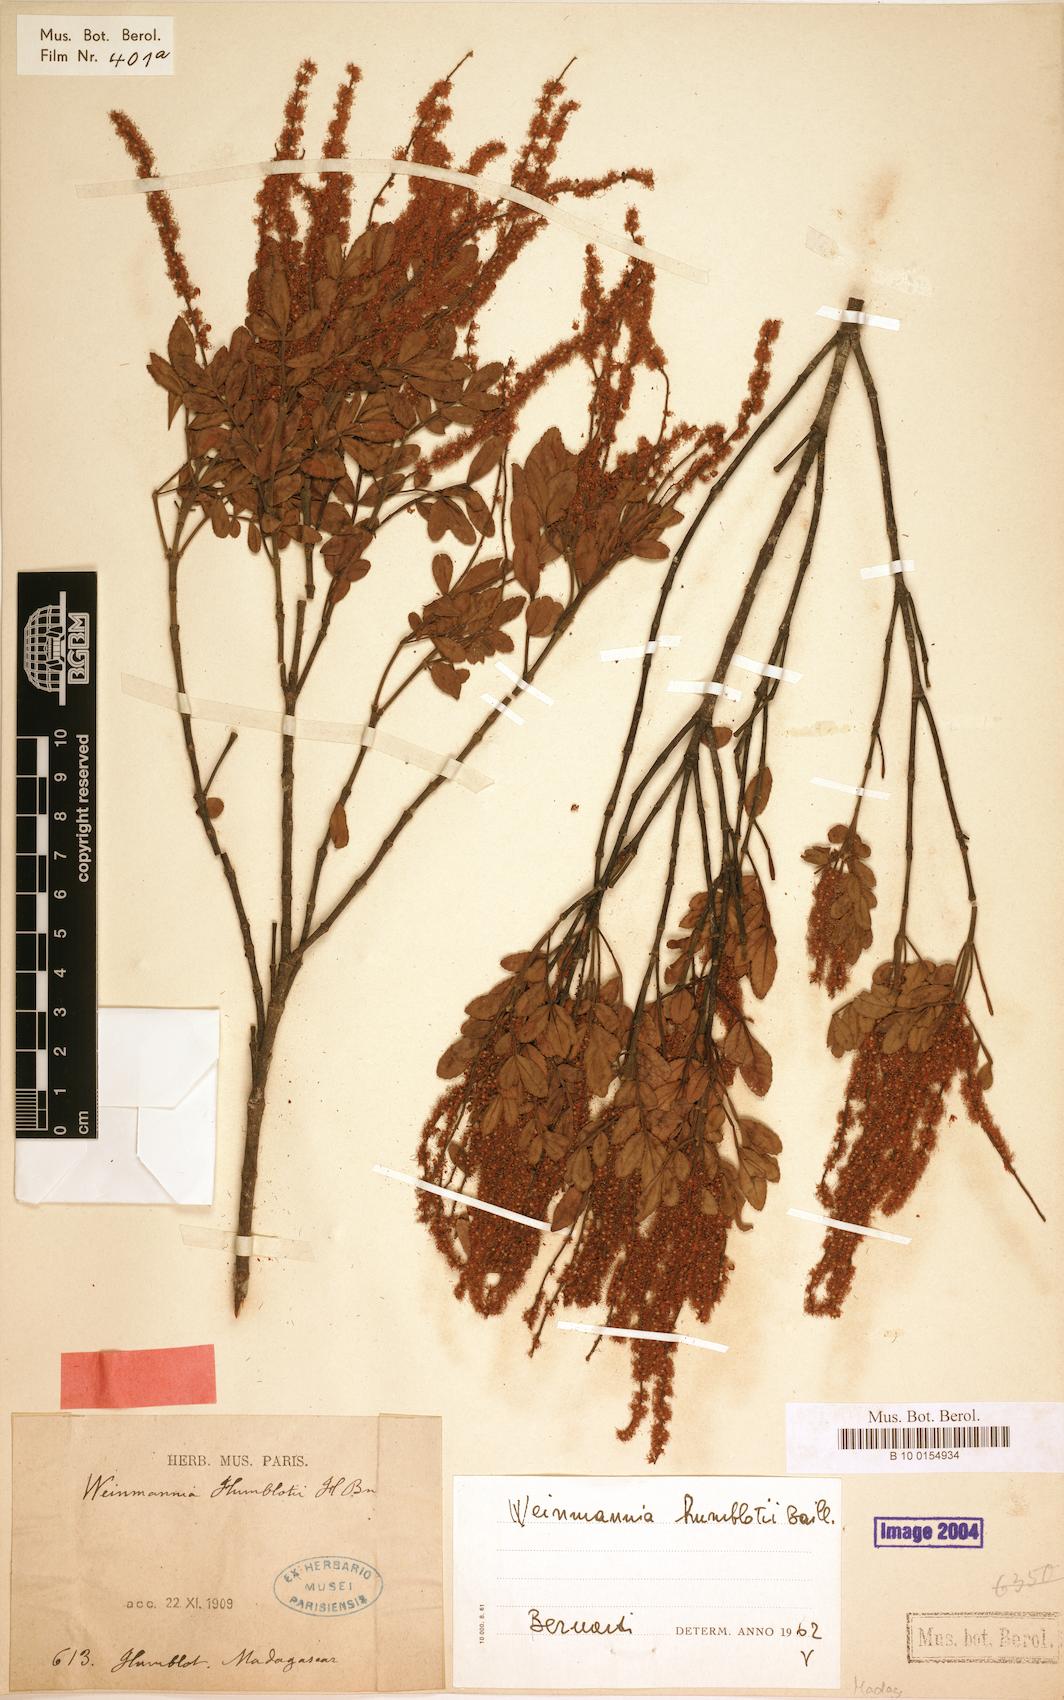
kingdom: Plantae
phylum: Tracheophyta
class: Magnoliopsida
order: Oxalidales
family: Cunoniaceae
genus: Pterophylla
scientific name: Pterophylla humblotii
